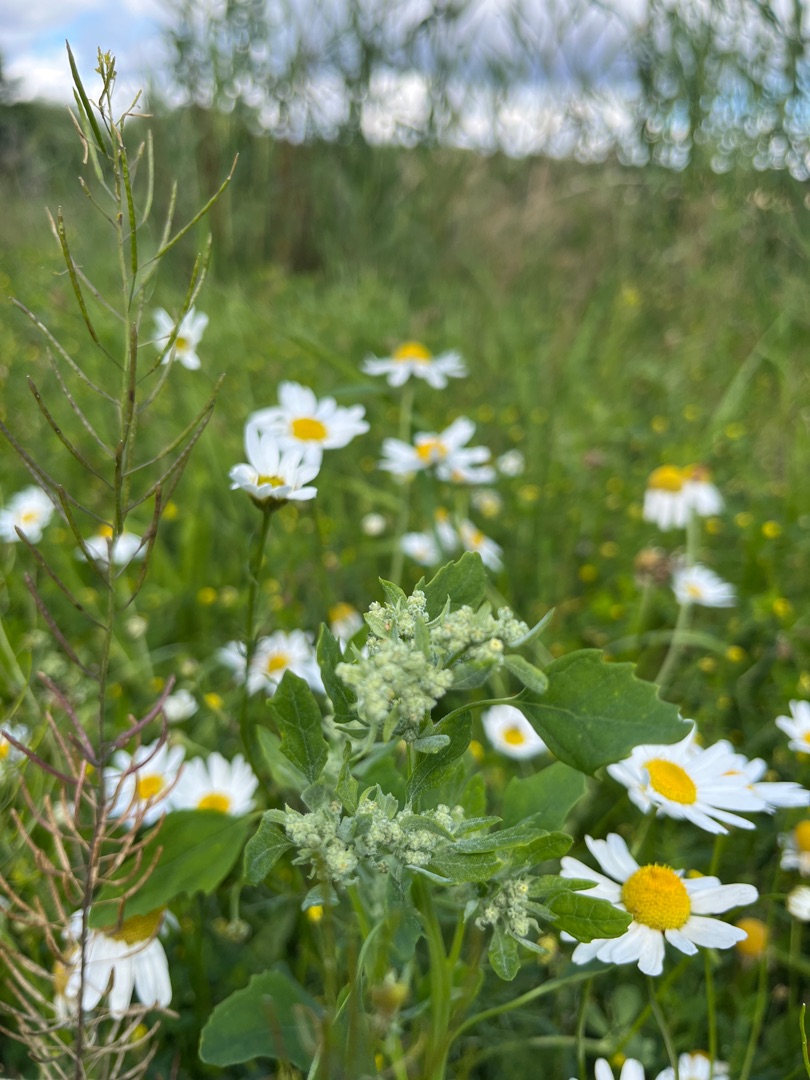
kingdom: Plantae
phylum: Tracheophyta
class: Magnoliopsida
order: Caryophyllales
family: Amaranthaceae
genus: Chenopodium
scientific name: Chenopodium album
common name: Hvidmelet gåsefod
